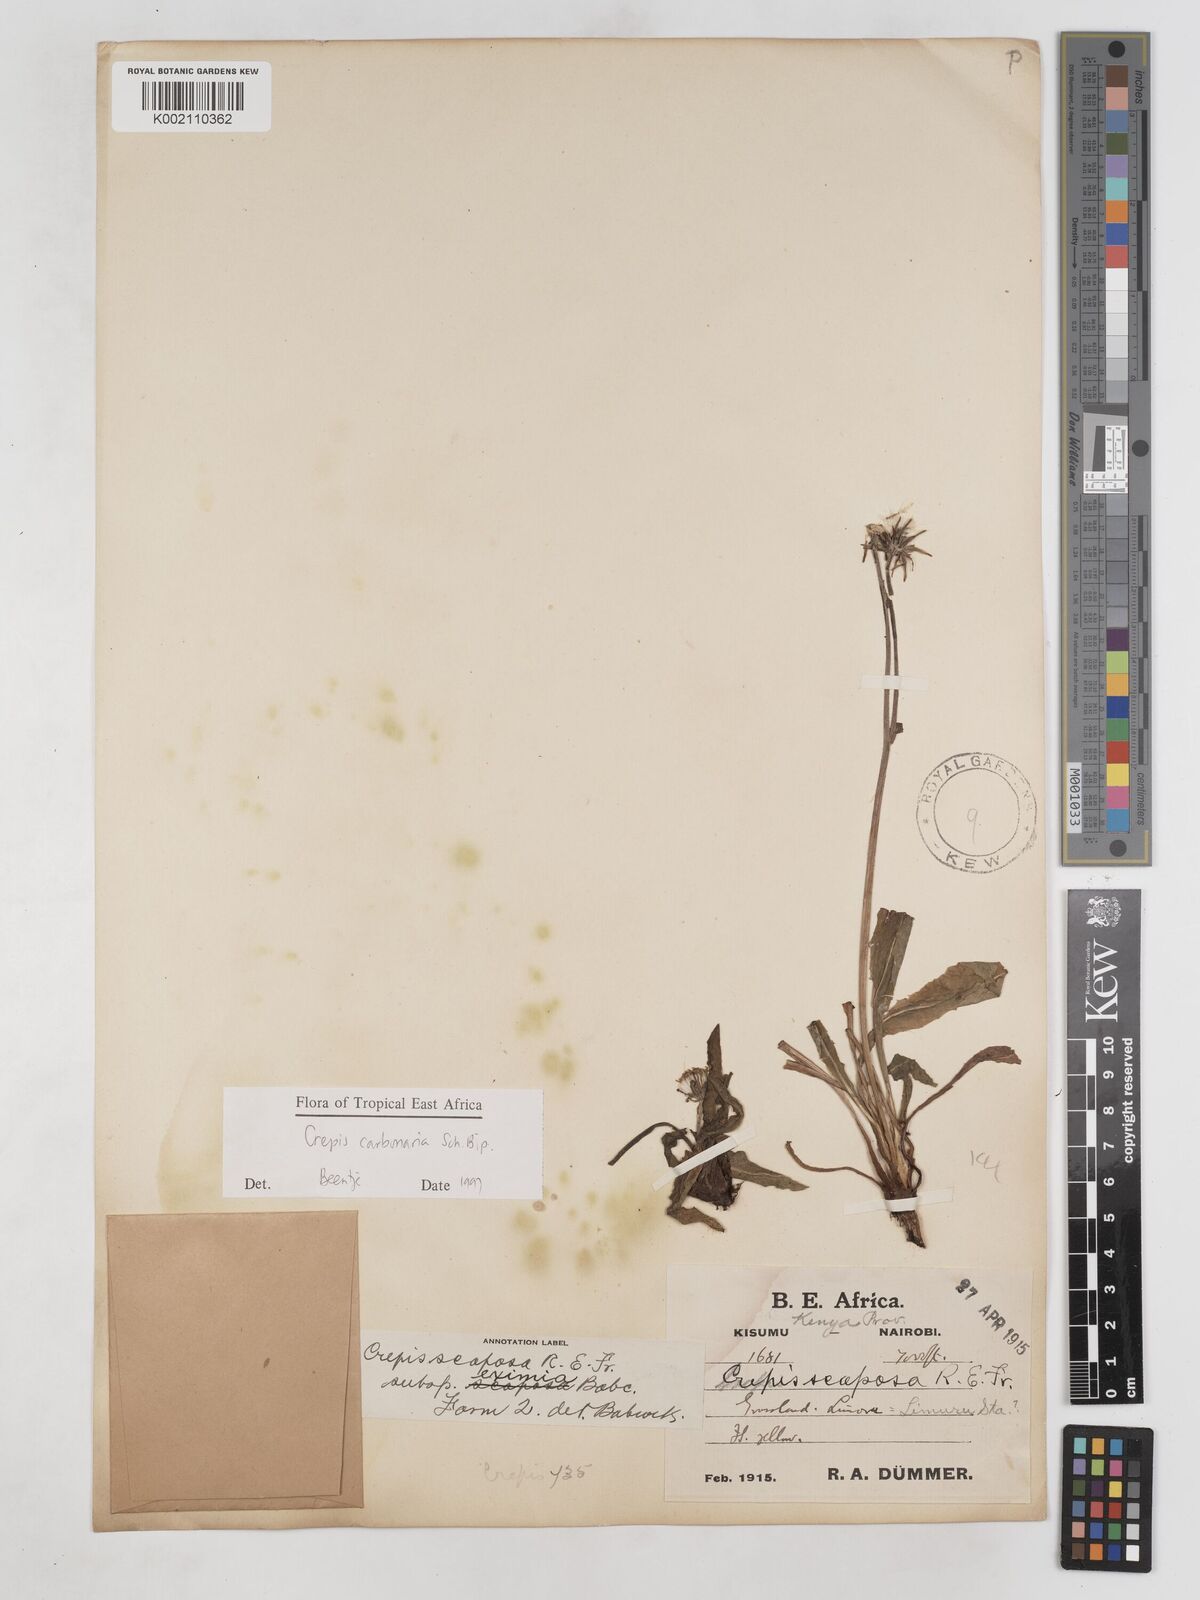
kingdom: Plantae
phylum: Tracheophyta
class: Magnoliopsida
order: Asterales
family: Asteraceae
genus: Crepis
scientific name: Crepis carbonaria
